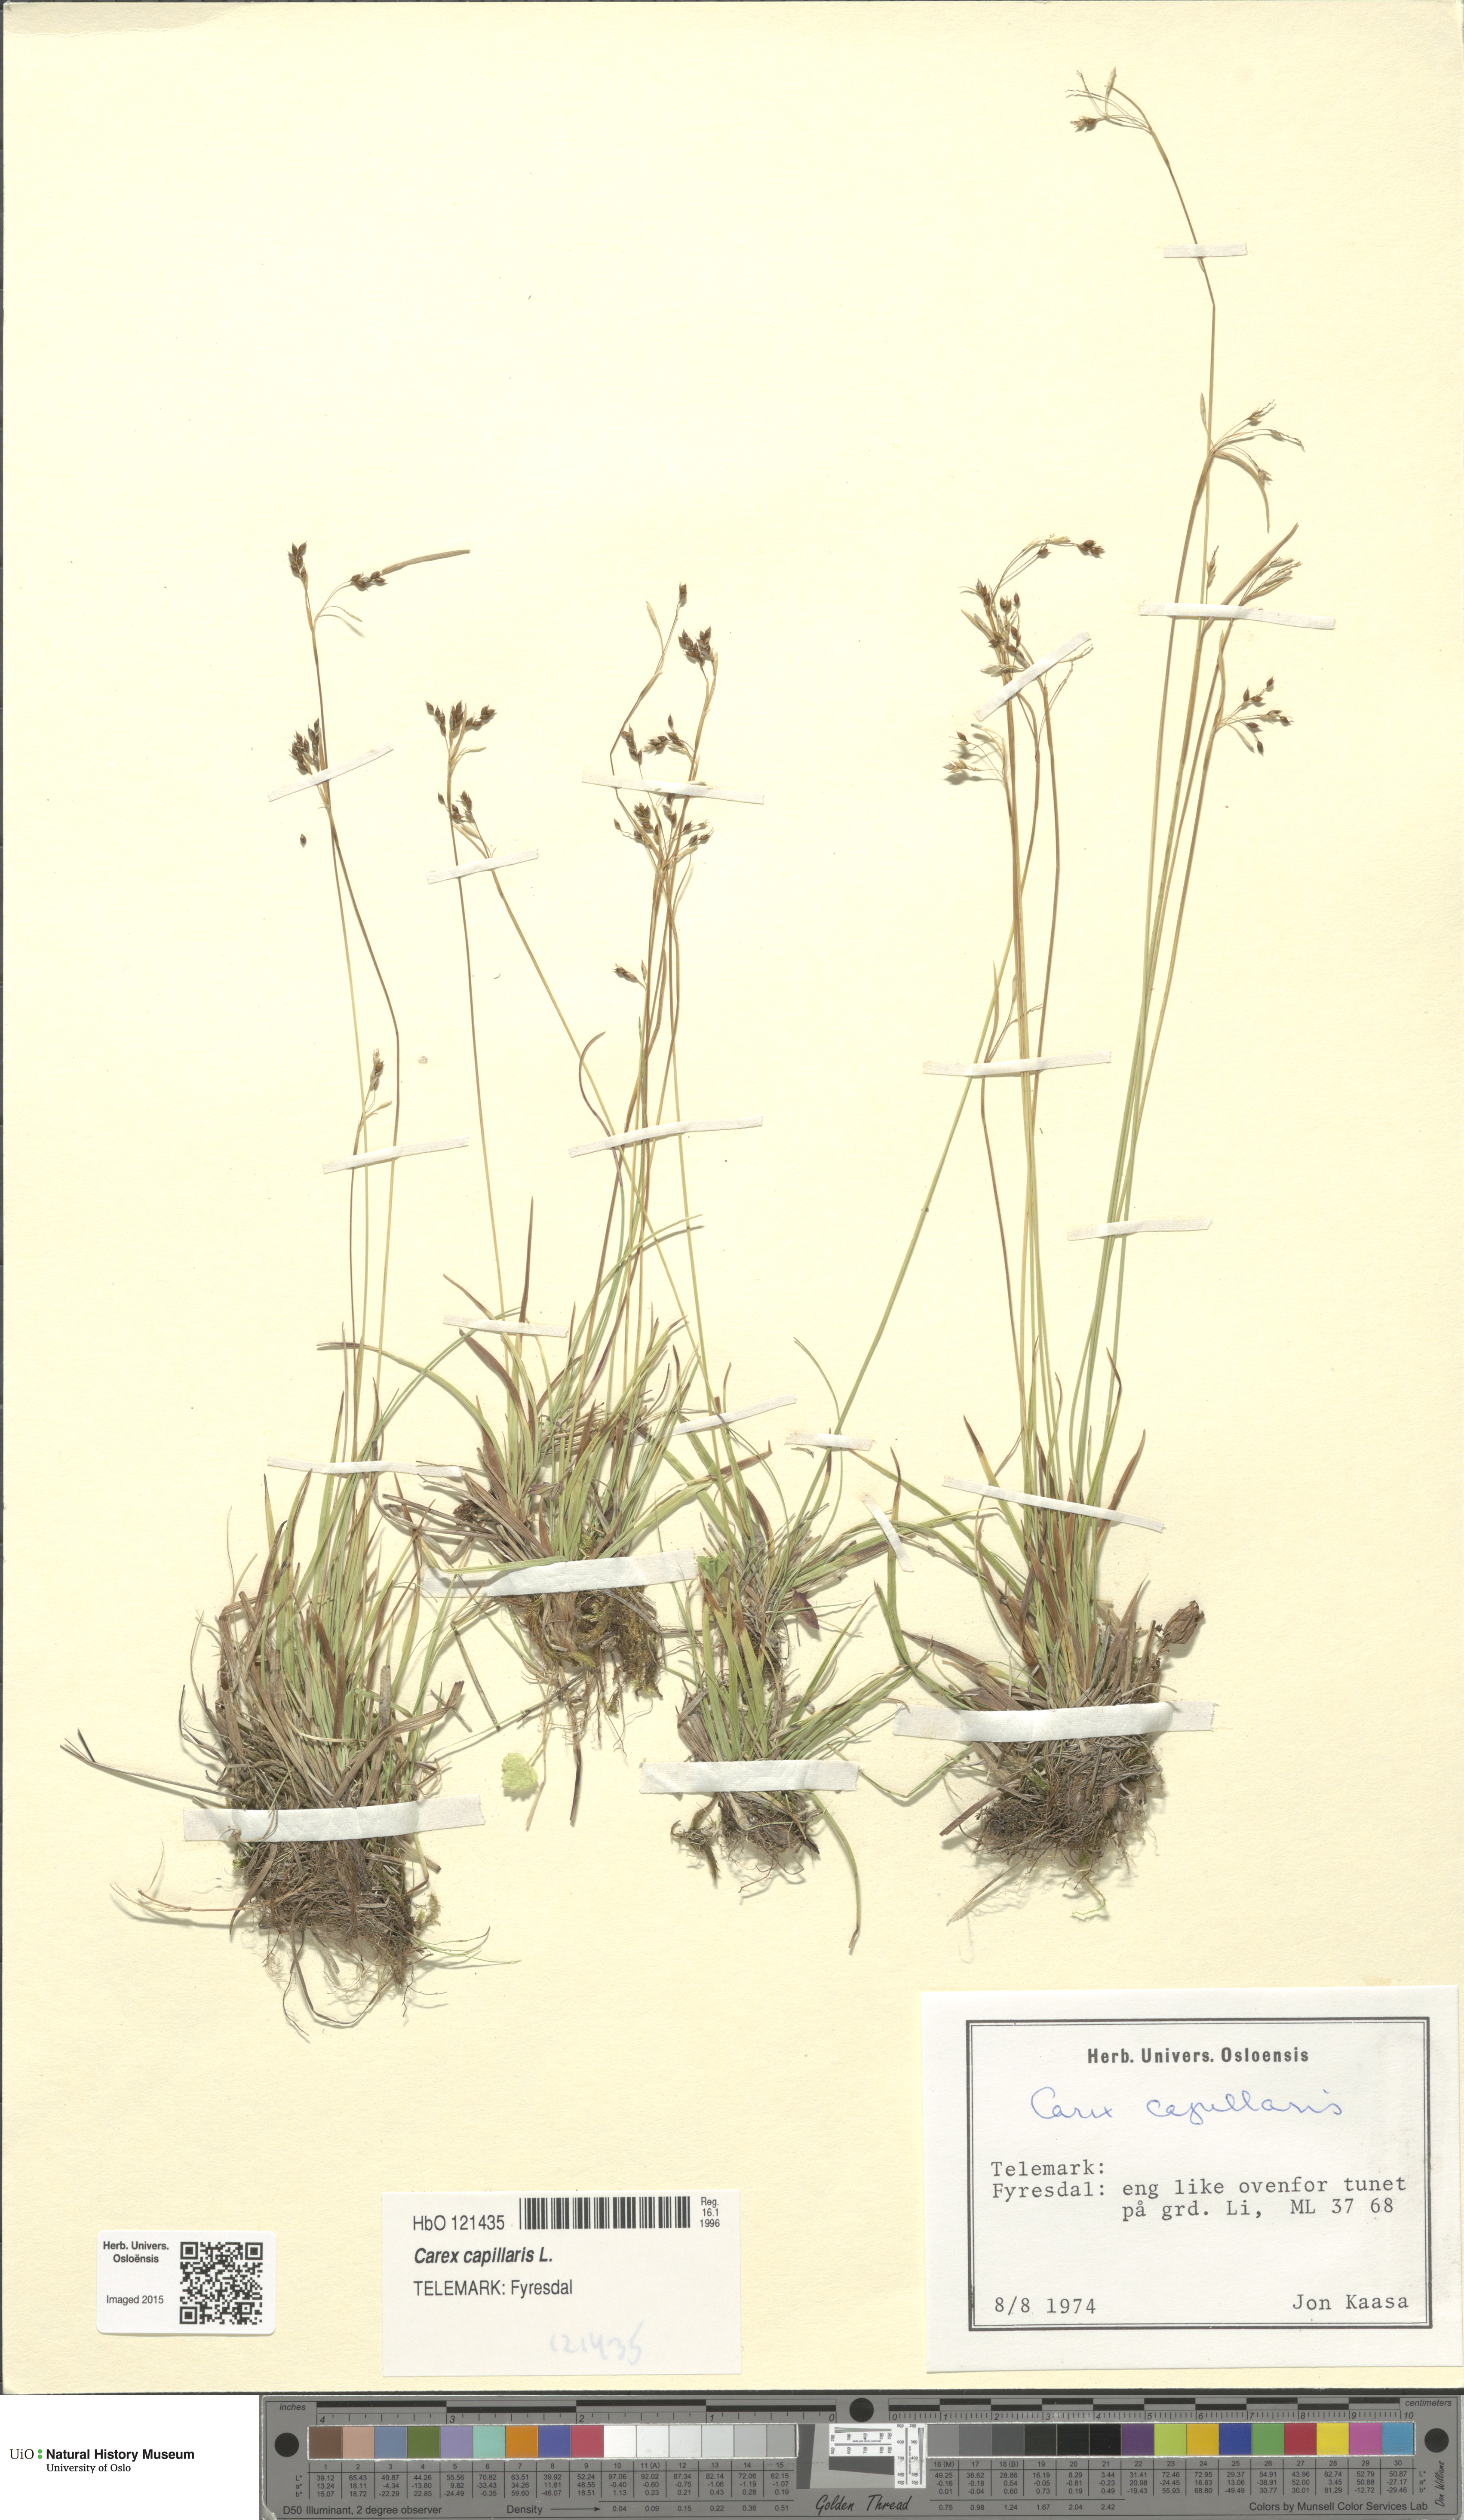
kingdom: Plantae
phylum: Tracheophyta
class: Liliopsida
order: Poales
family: Cyperaceae
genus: Carex
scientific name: Carex capillaris
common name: Hair sedge
